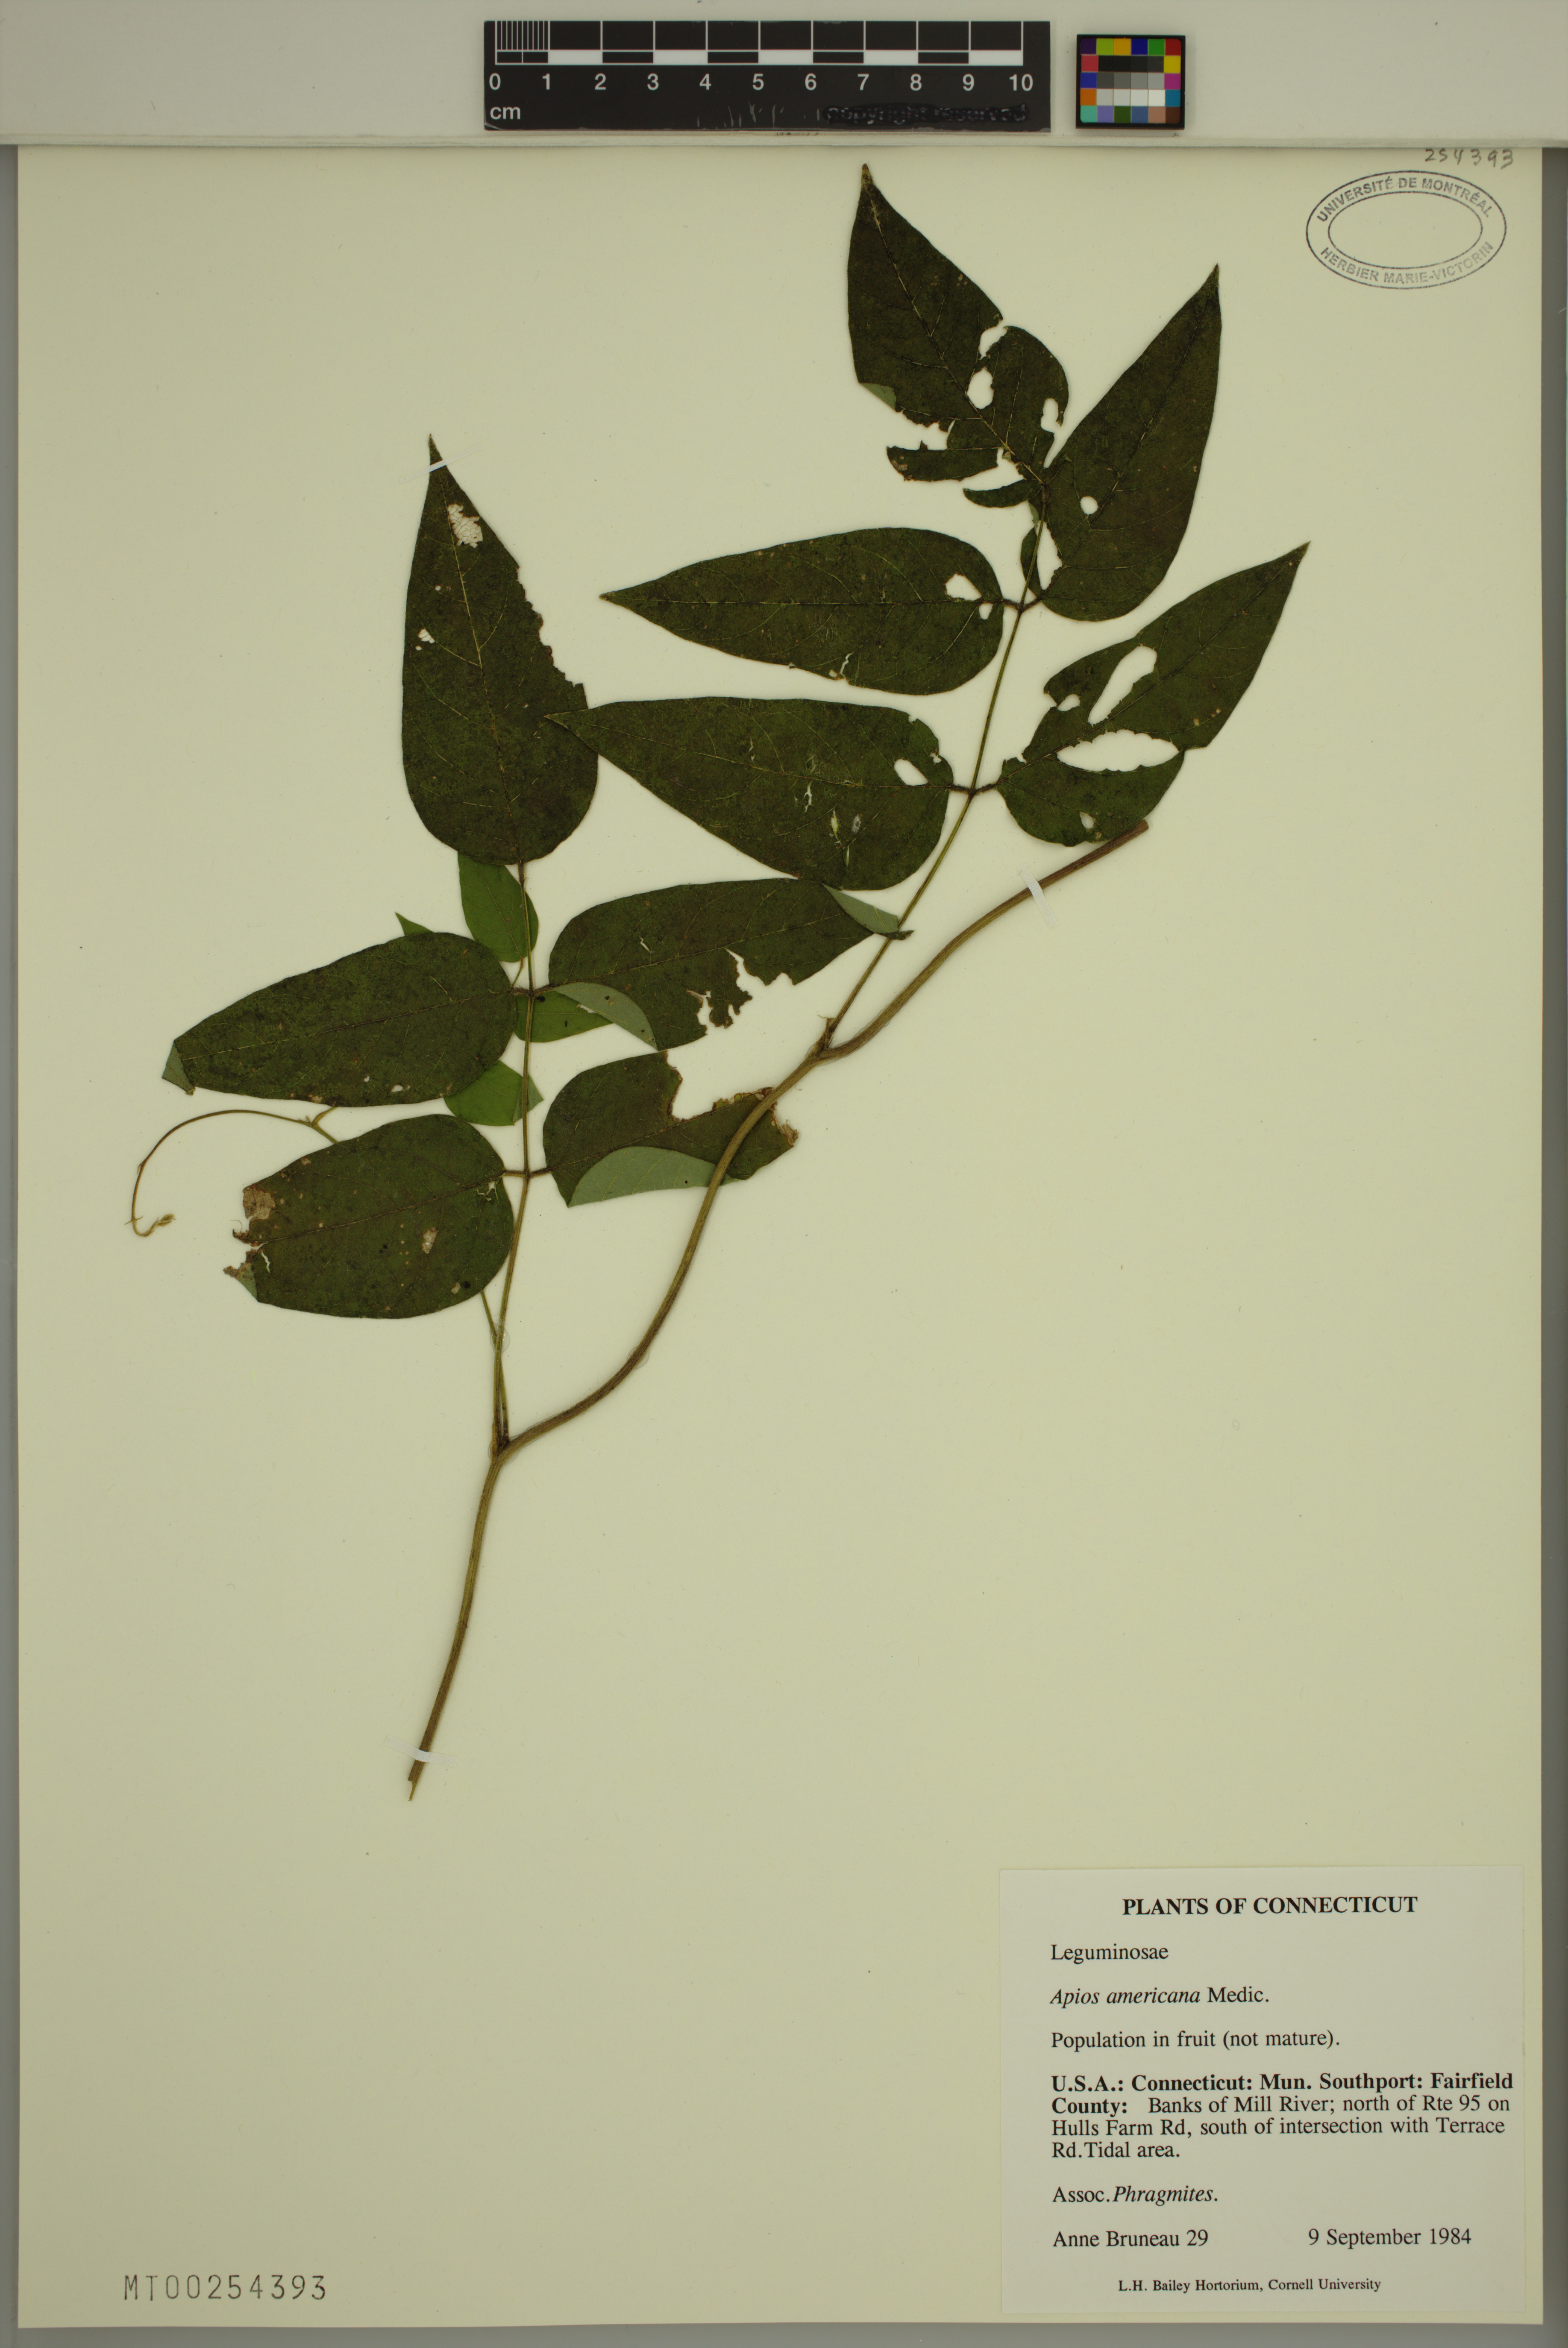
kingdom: Plantae
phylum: Tracheophyta
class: Magnoliopsida
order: Fabales
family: Fabaceae
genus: Apios
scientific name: Apios americana
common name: American potato-bean
